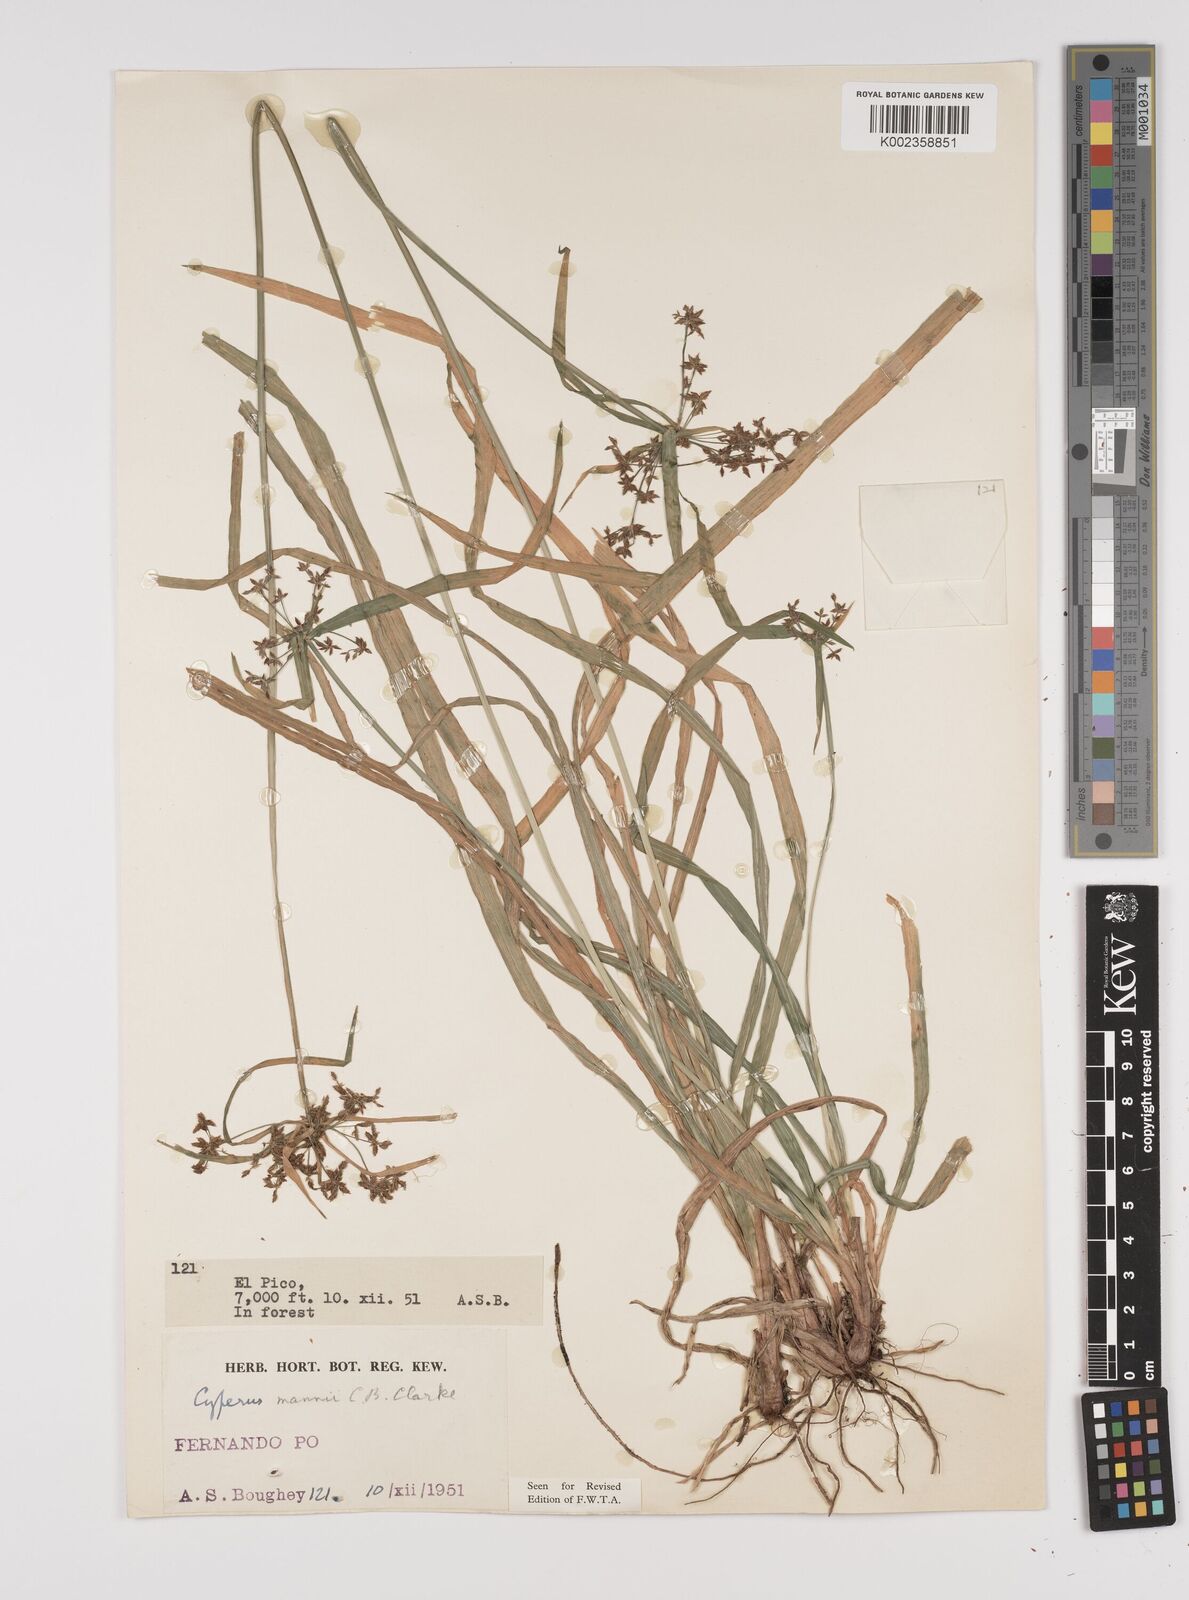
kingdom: Plantae
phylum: Tracheophyta
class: Liliopsida
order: Poales
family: Cyperaceae
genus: Cyperus
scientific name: Cyperus baronii
